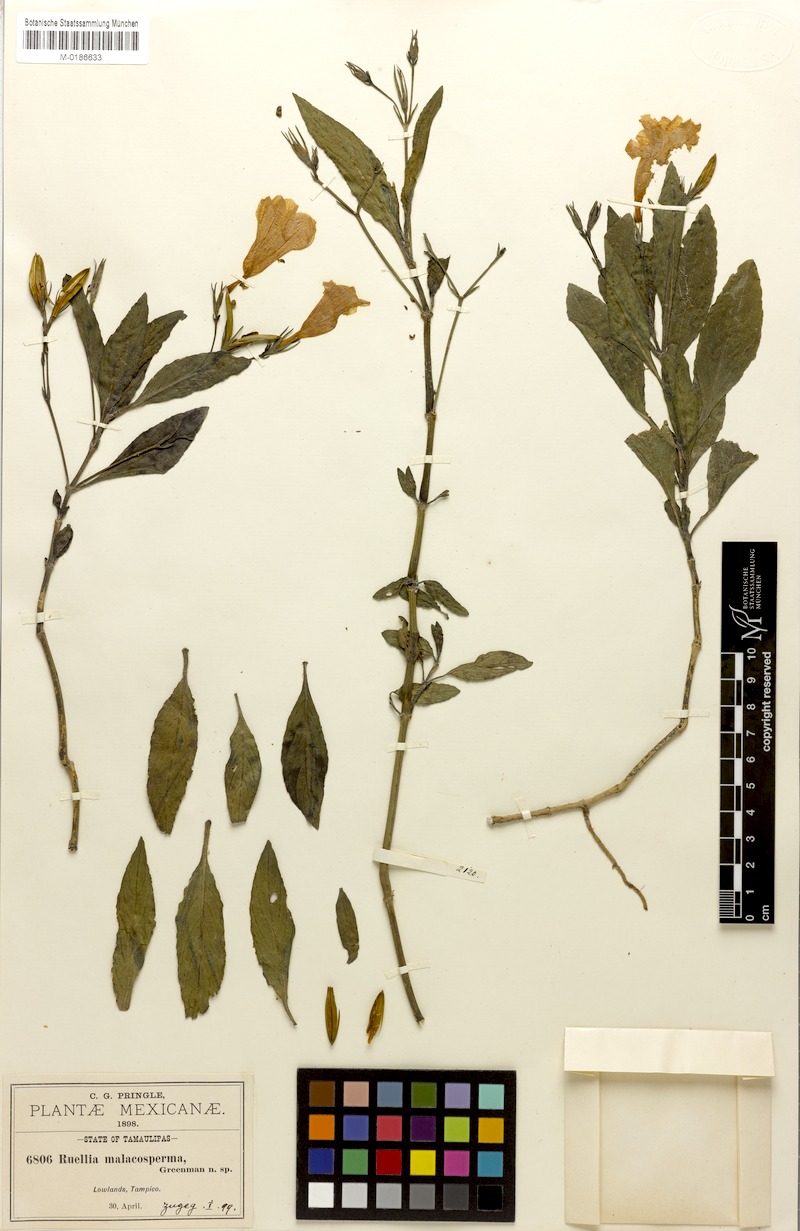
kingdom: Plantae
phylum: Tracheophyta
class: Magnoliopsida
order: Lamiales
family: Acanthaceae
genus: Ruellia
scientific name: Ruellia malacosperma
